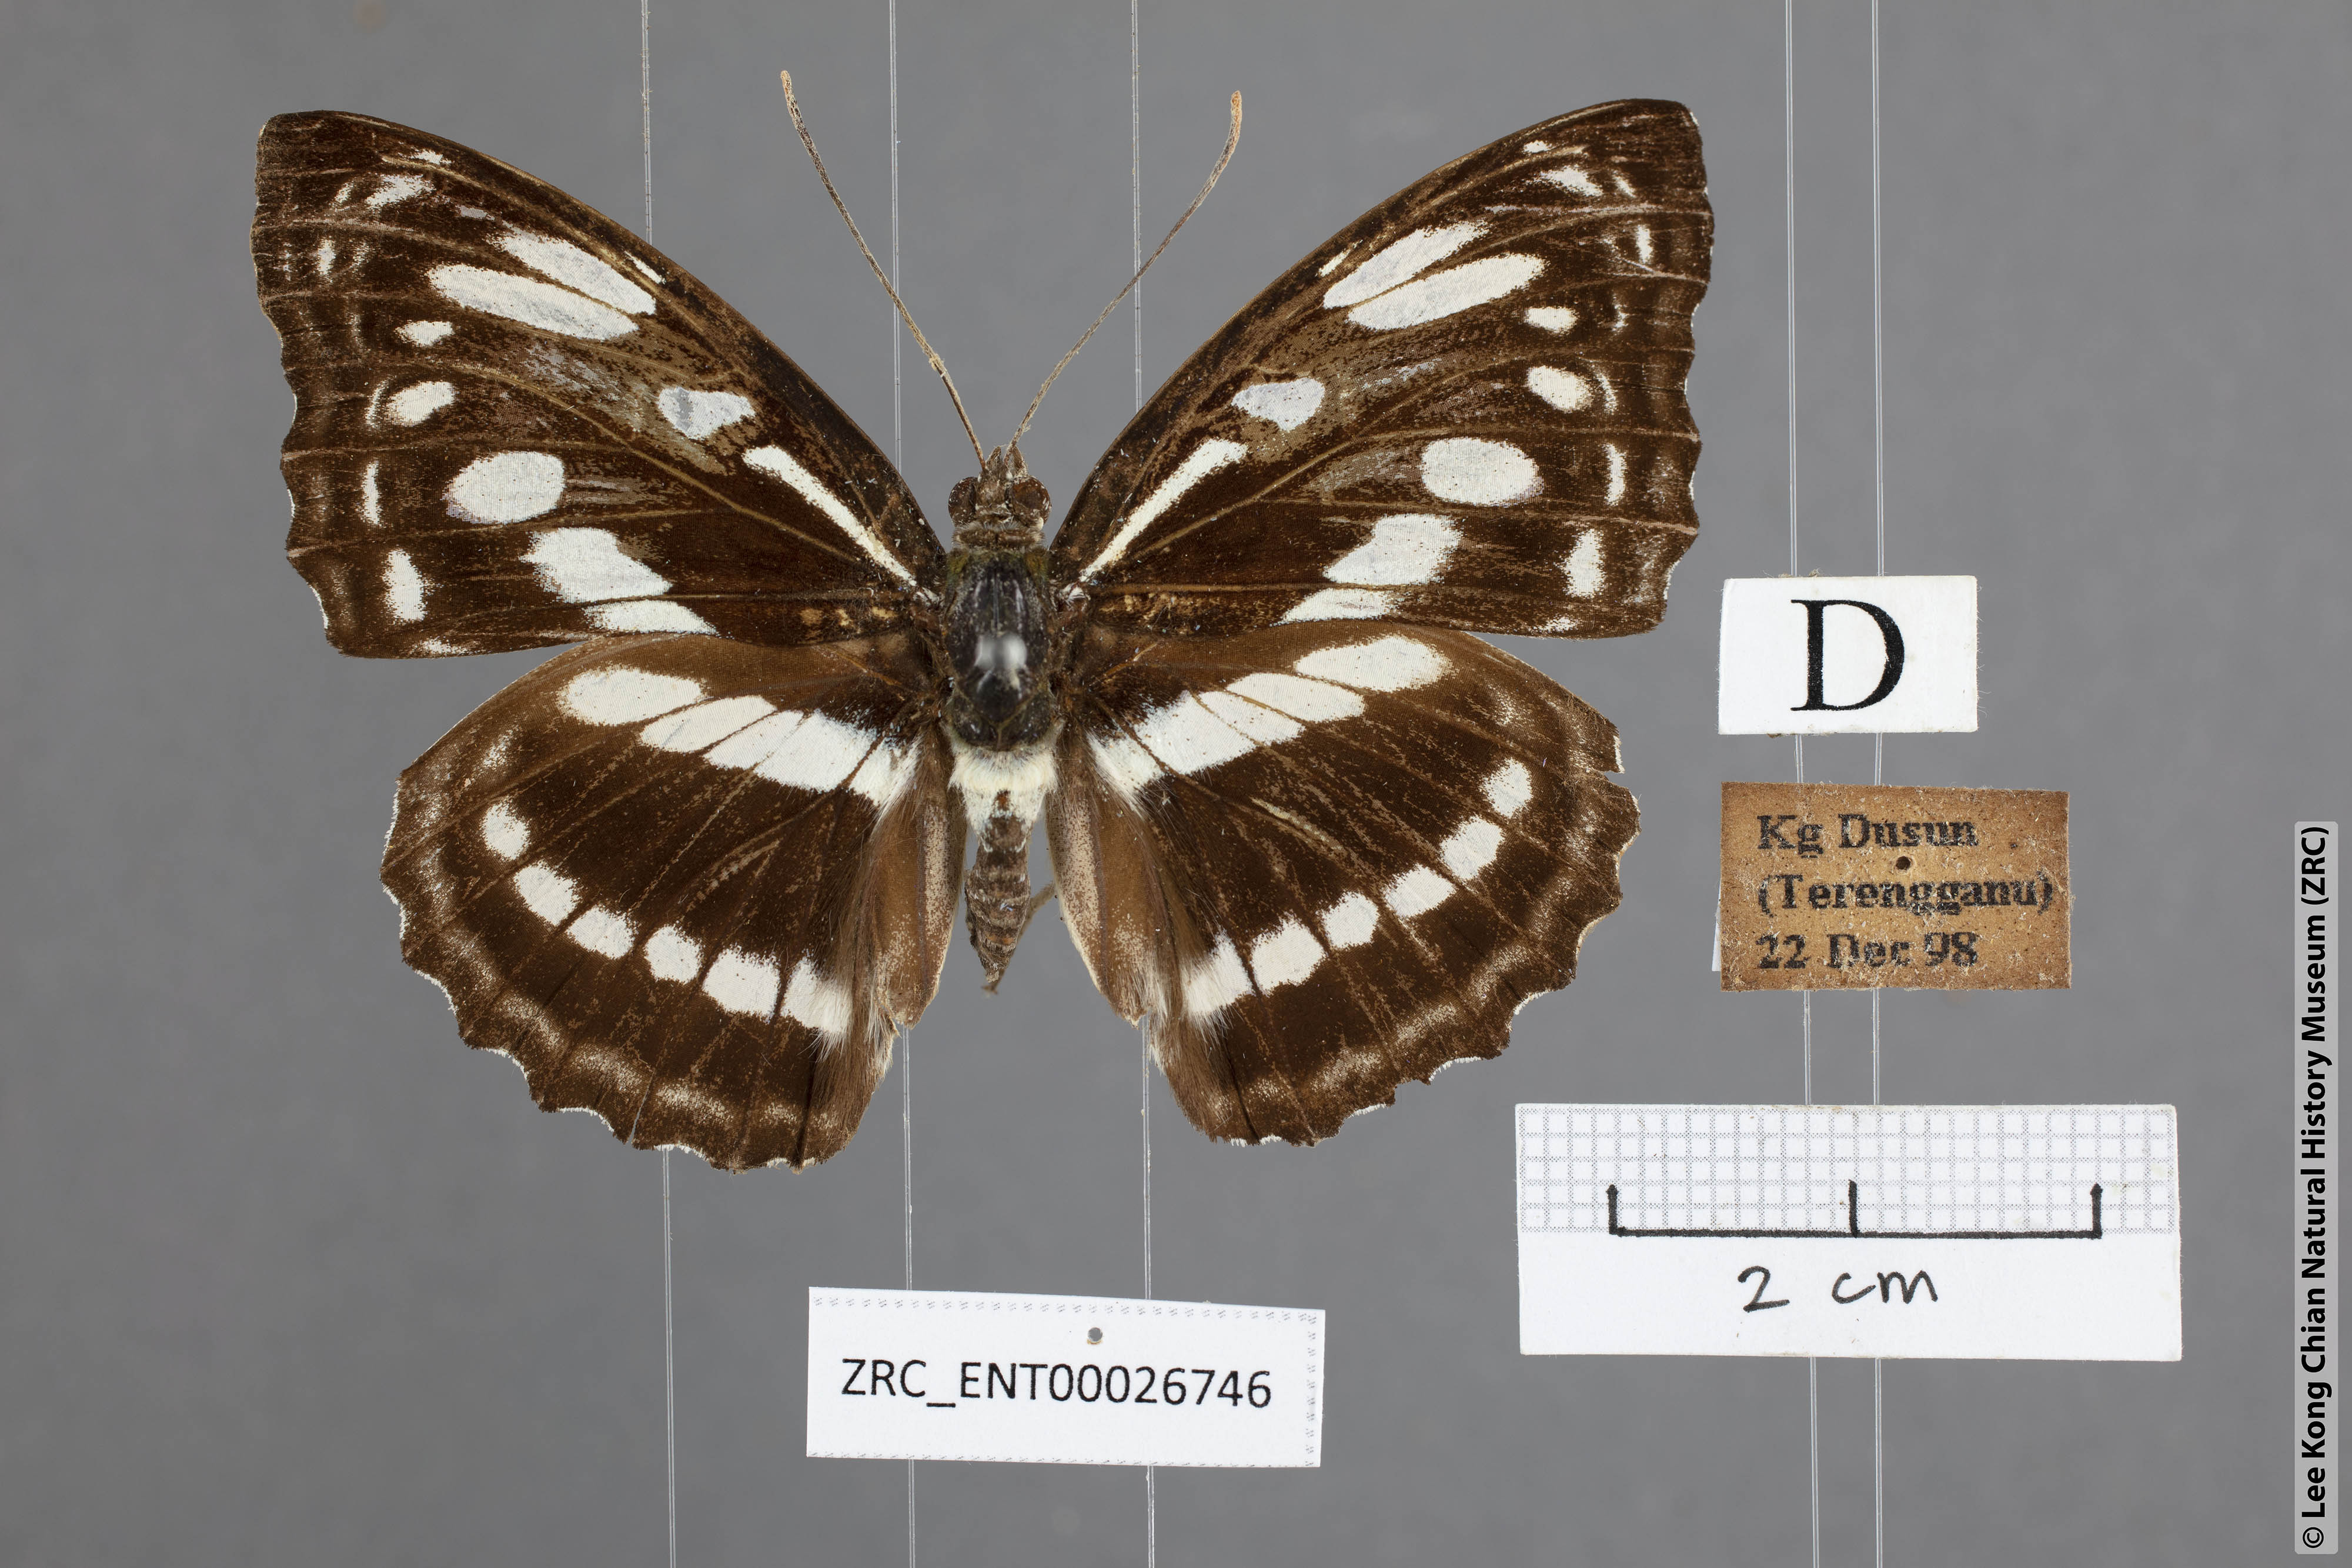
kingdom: Animalia
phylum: Arthropoda
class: Insecta
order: Lepidoptera
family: Nymphalidae
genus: Parathyma
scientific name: Parathyma asura
